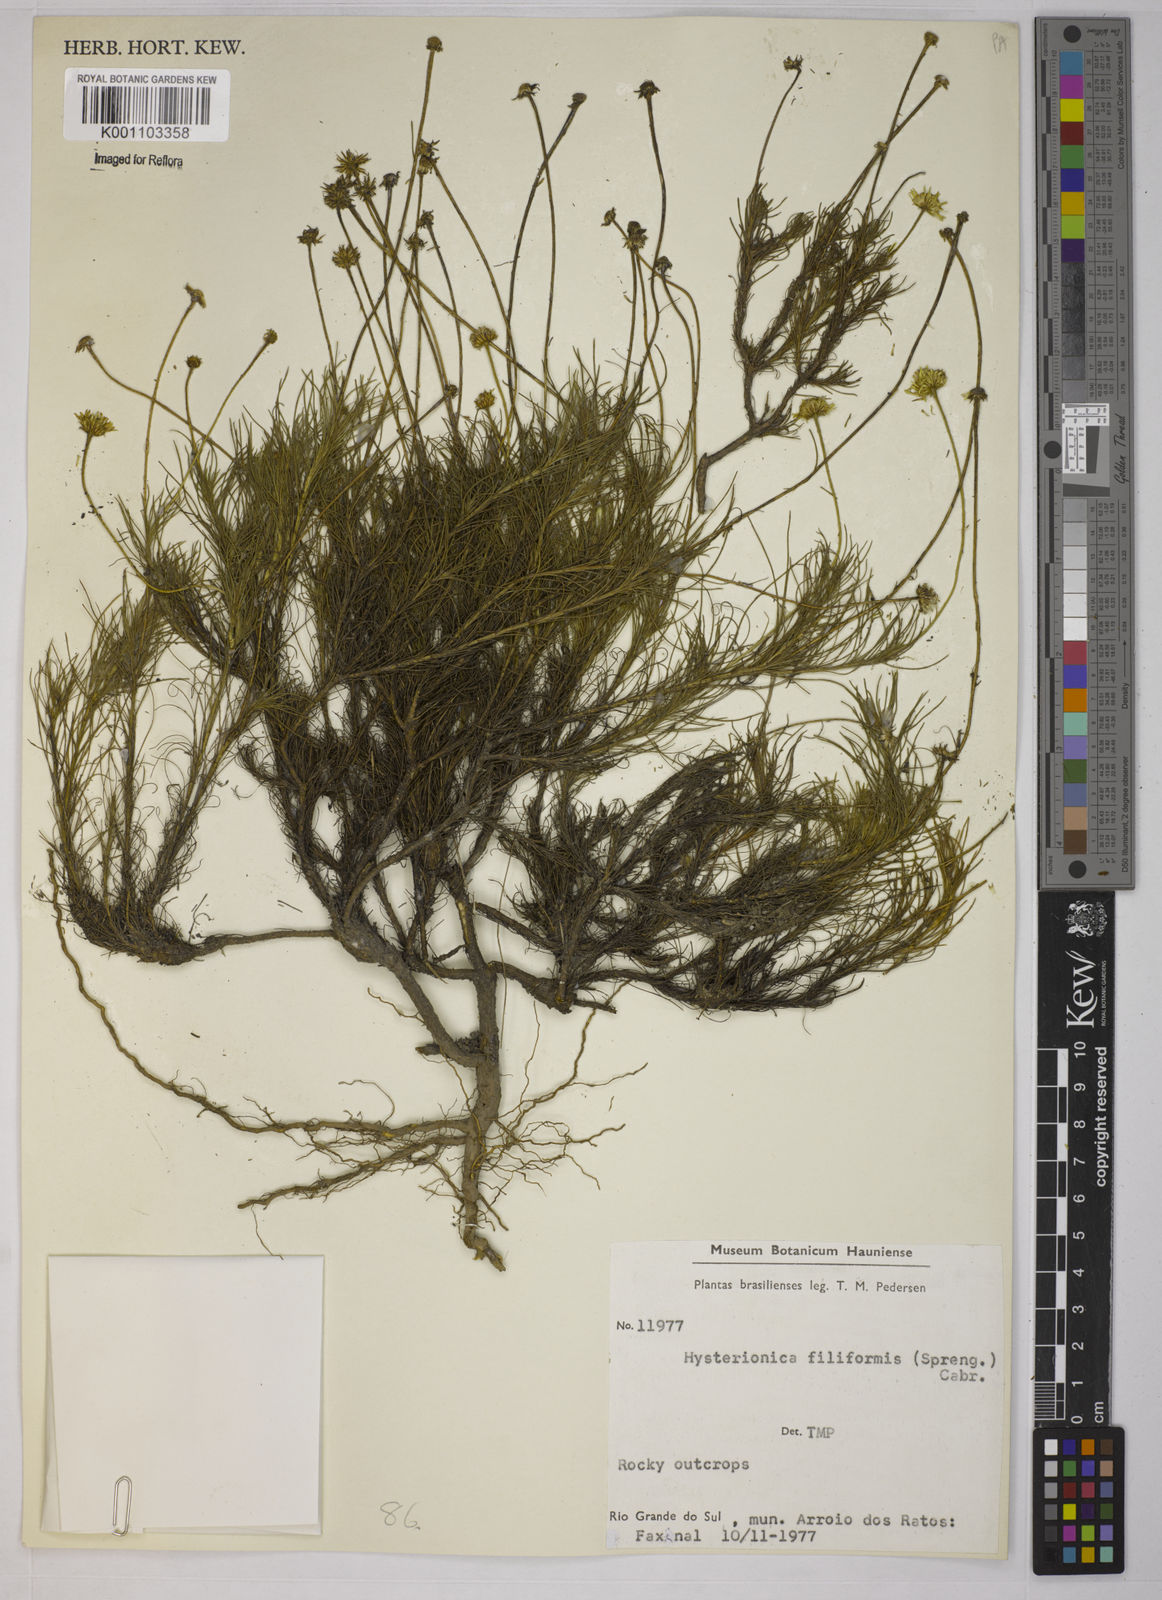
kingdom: Plantae
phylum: Tracheophyta
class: Magnoliopsida
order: Asterales
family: Asteraceae
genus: Neja
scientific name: Neja filiformis
